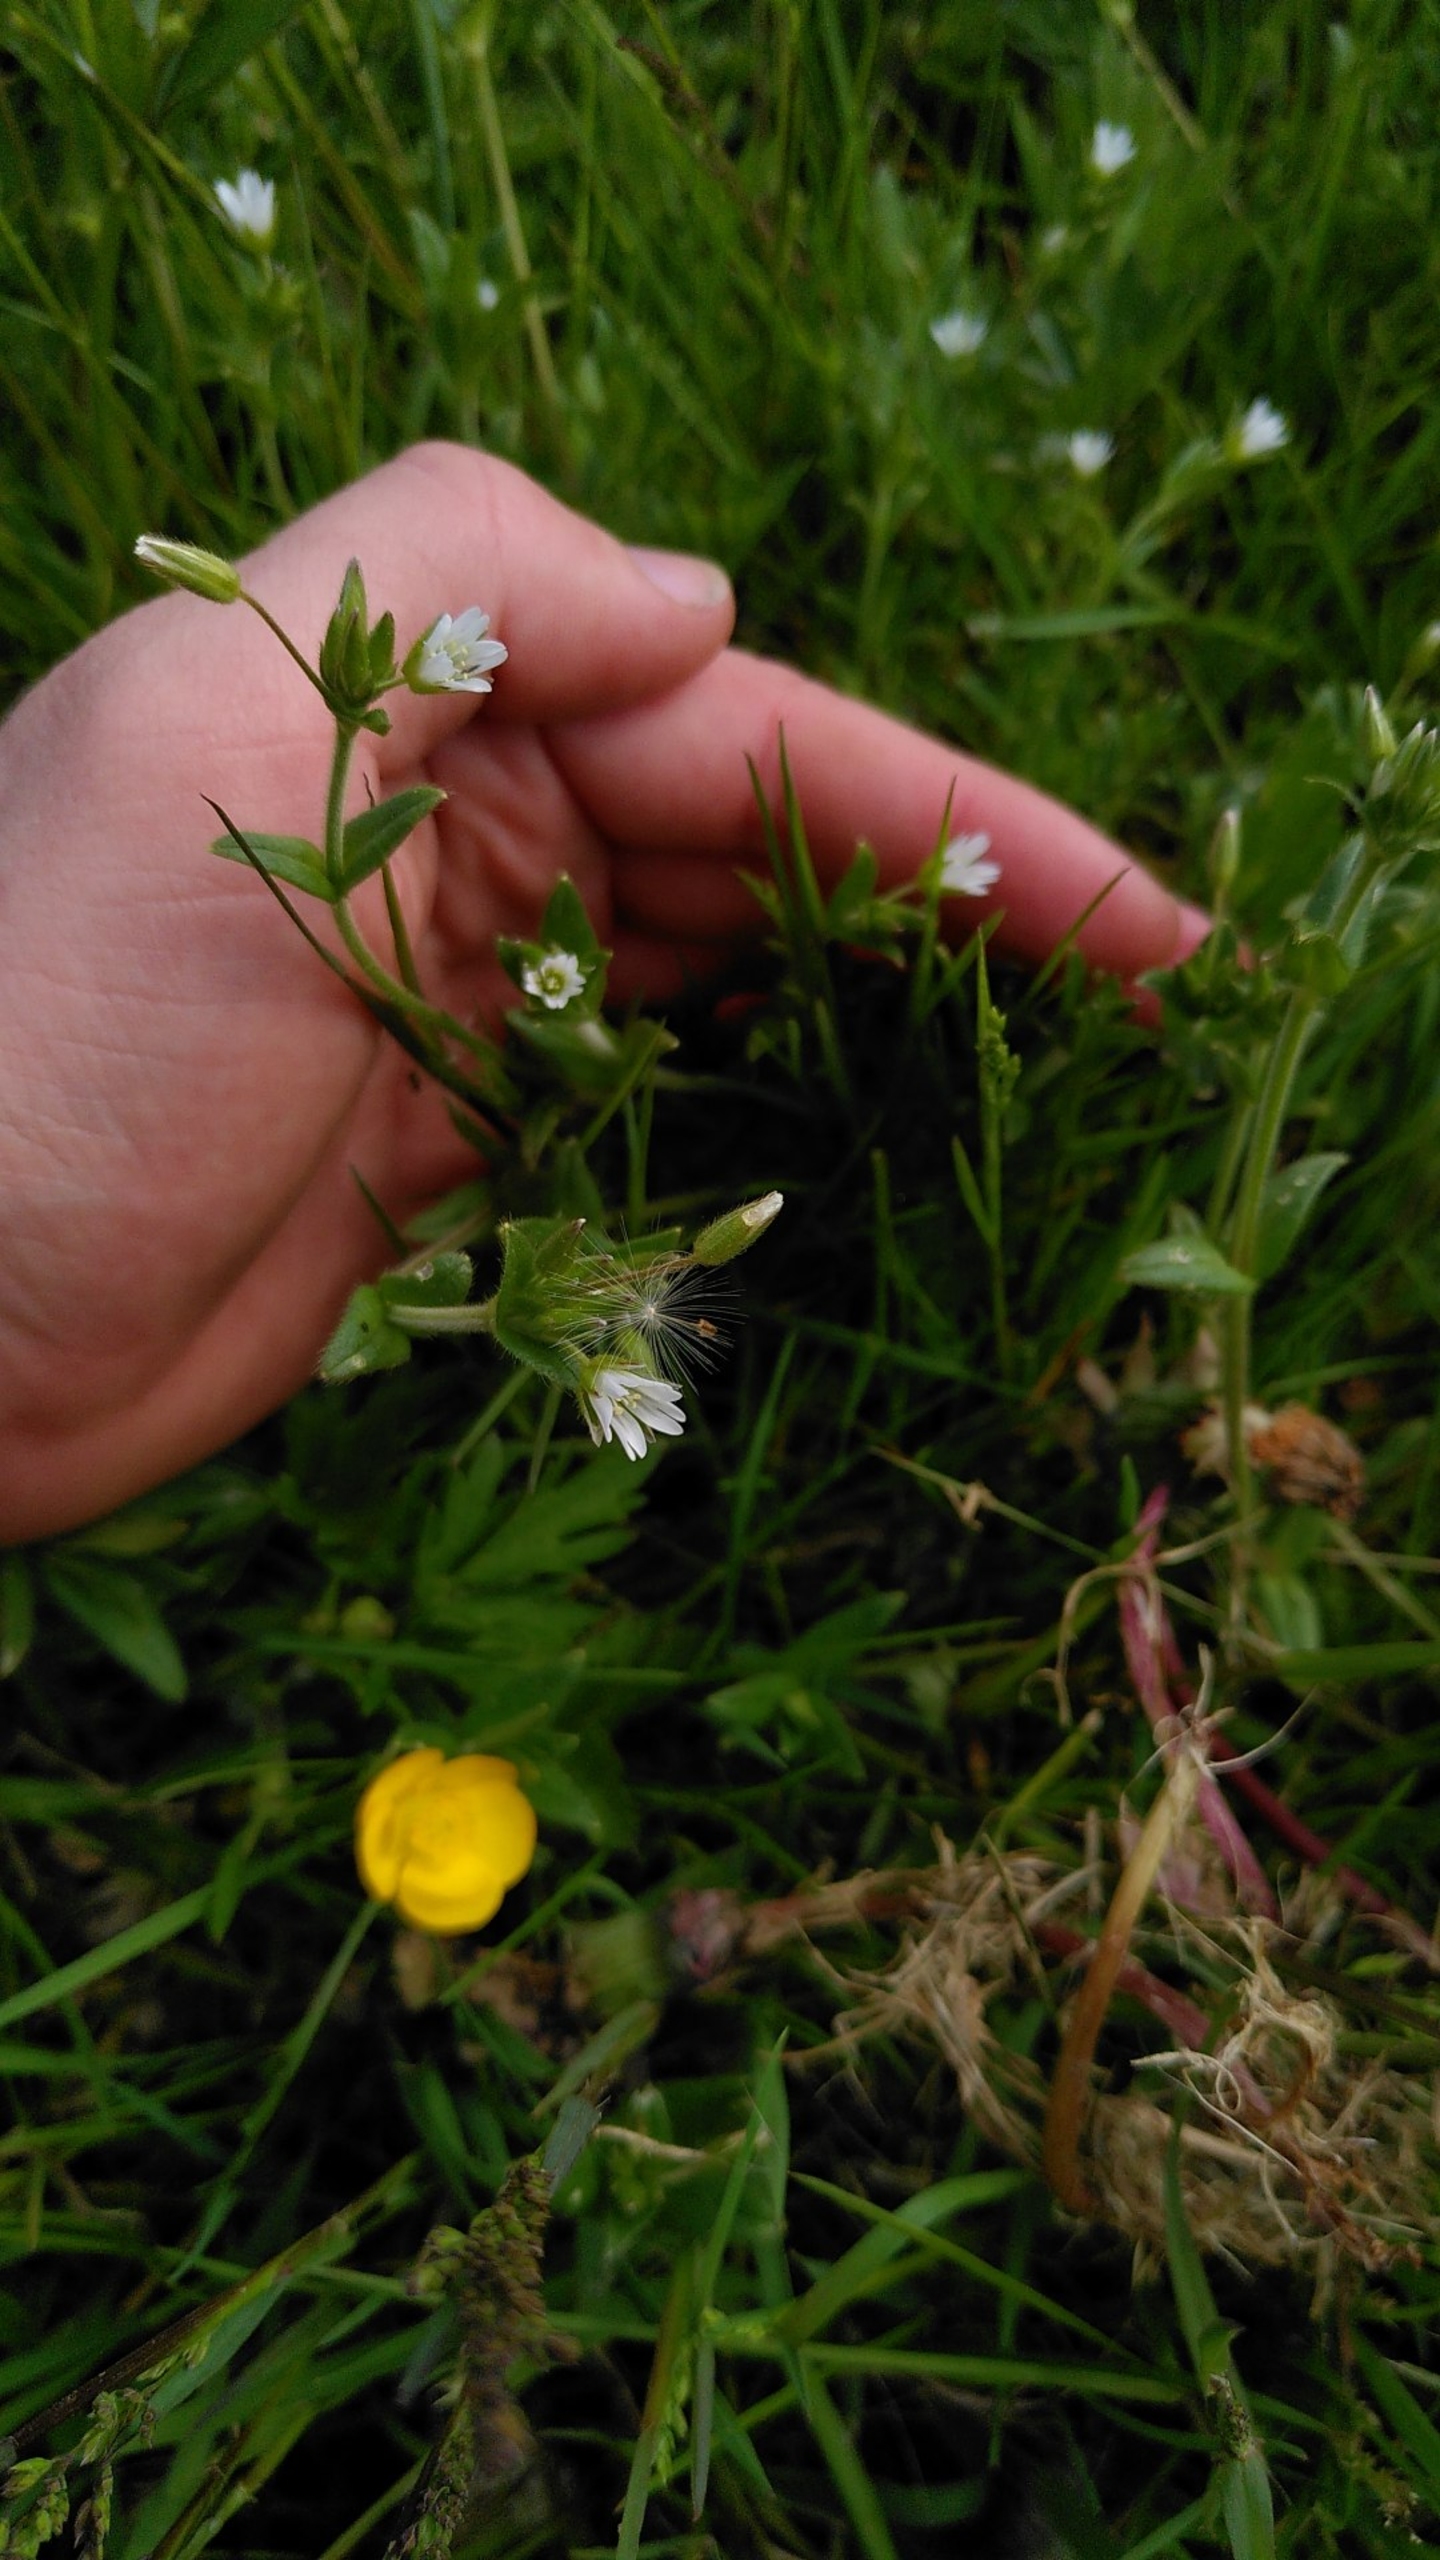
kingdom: Plantae
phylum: Tracheophyta
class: Magnoliopsida
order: Caryophyllales
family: Caryophyllaceae
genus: Cerastium
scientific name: Cerastium fontanum
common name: Almindelig hønsetarm
